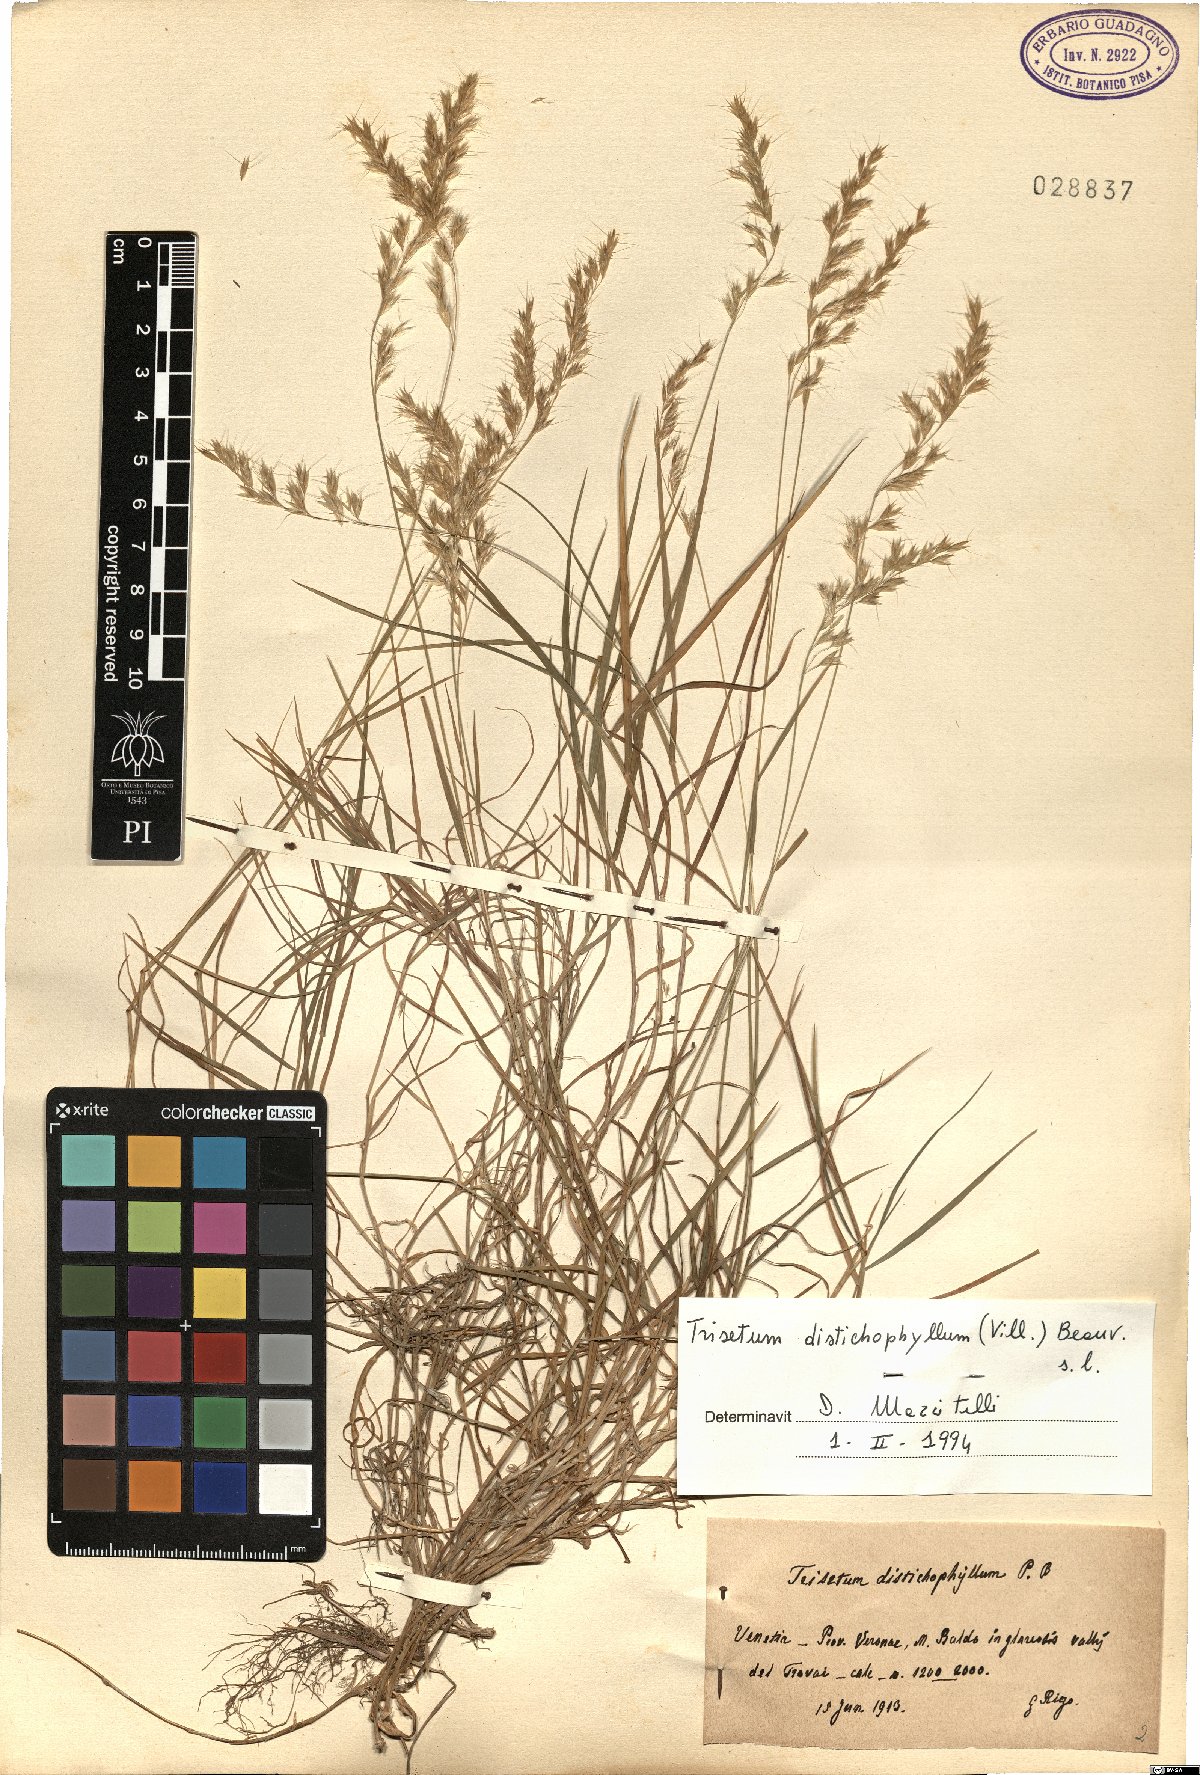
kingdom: Plantae
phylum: Tracheophyta
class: Liliopsida
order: Poales
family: Poaceae
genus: Acrospelion
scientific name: Acrospelion distichophyllum
